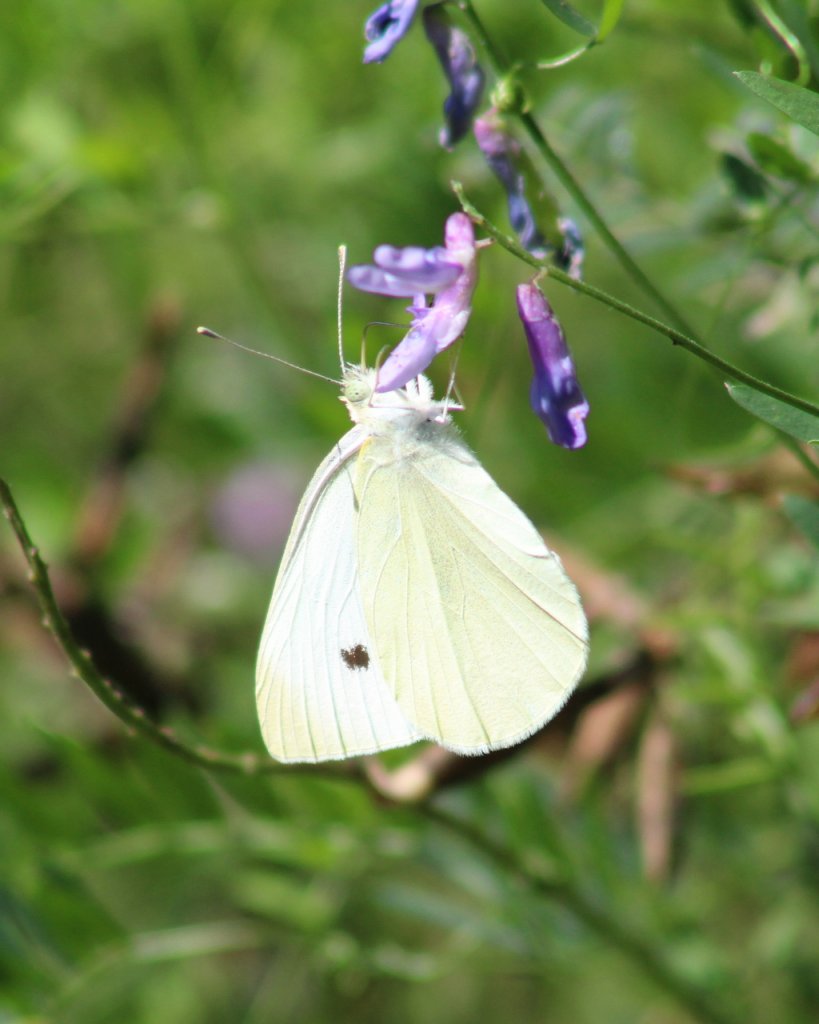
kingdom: Animalia
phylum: Arthropoda
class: Insecta
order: Lepidoptera
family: Pieridae
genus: Pieris
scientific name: Pieris rapae
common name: Cabbage White
